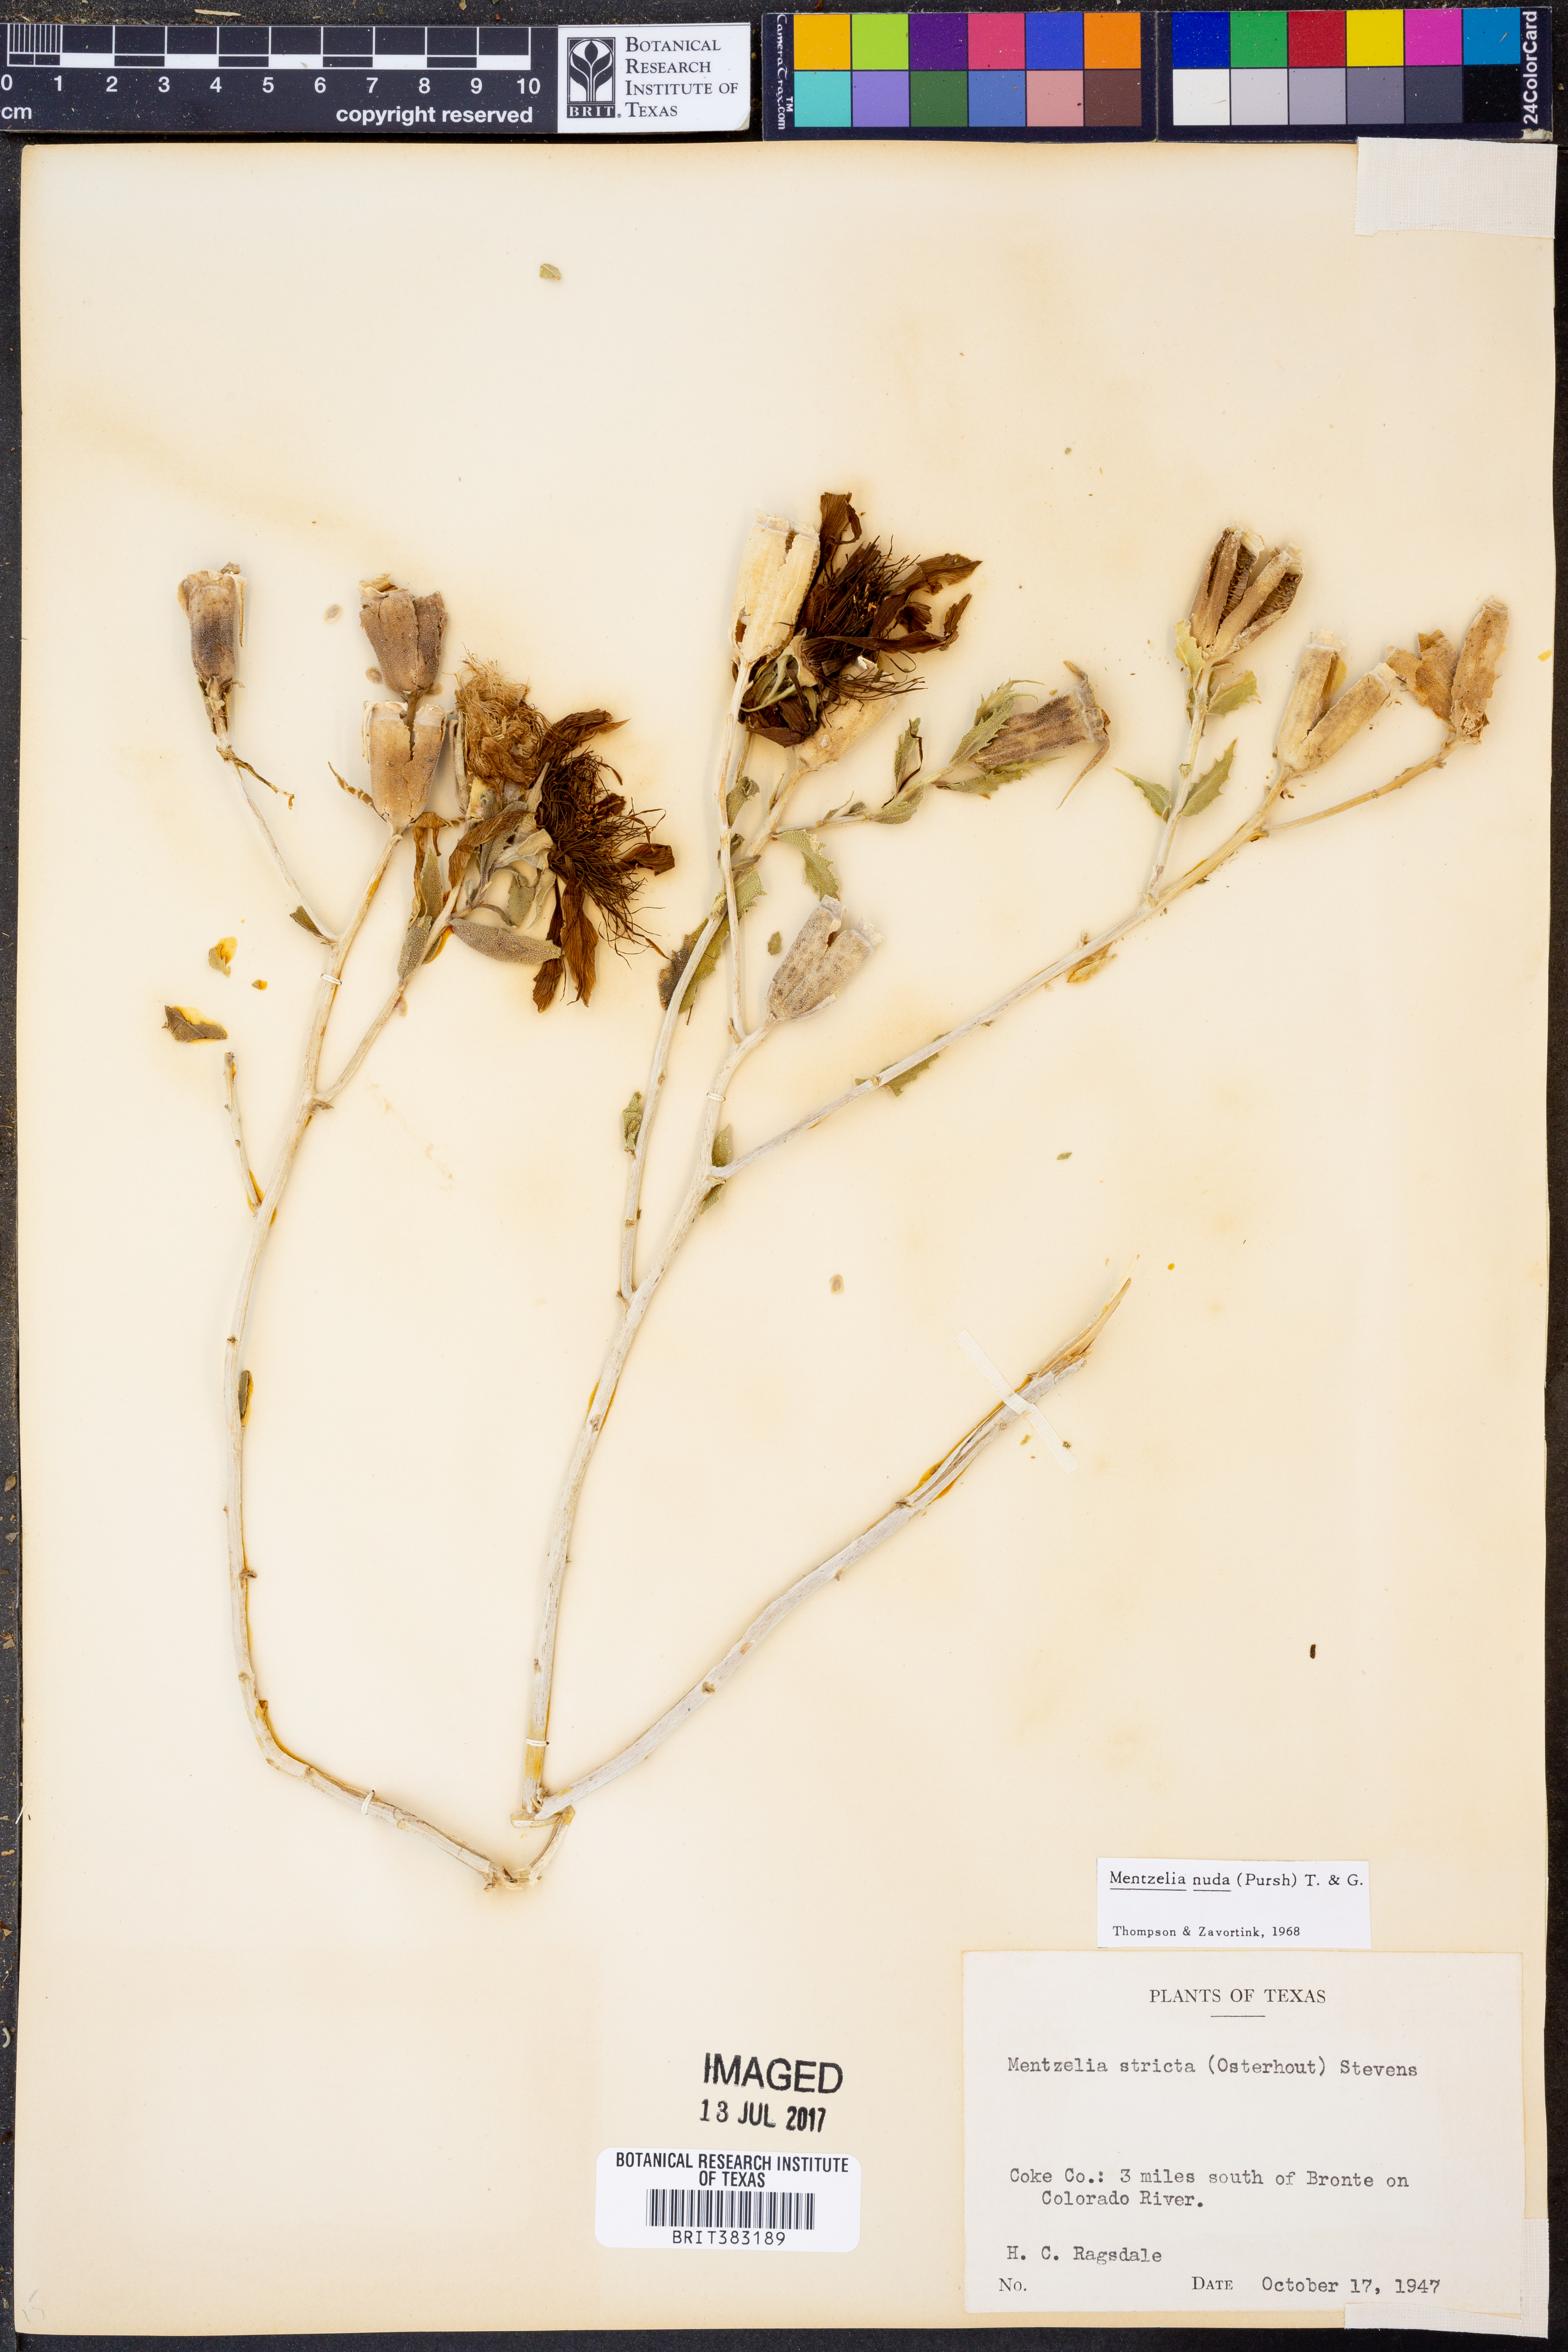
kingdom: Plantae
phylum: Tracheophyta
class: Magnoliopsida
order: Cornales
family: Loasaceae
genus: Mentzelia
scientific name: Mentzelia nuda
